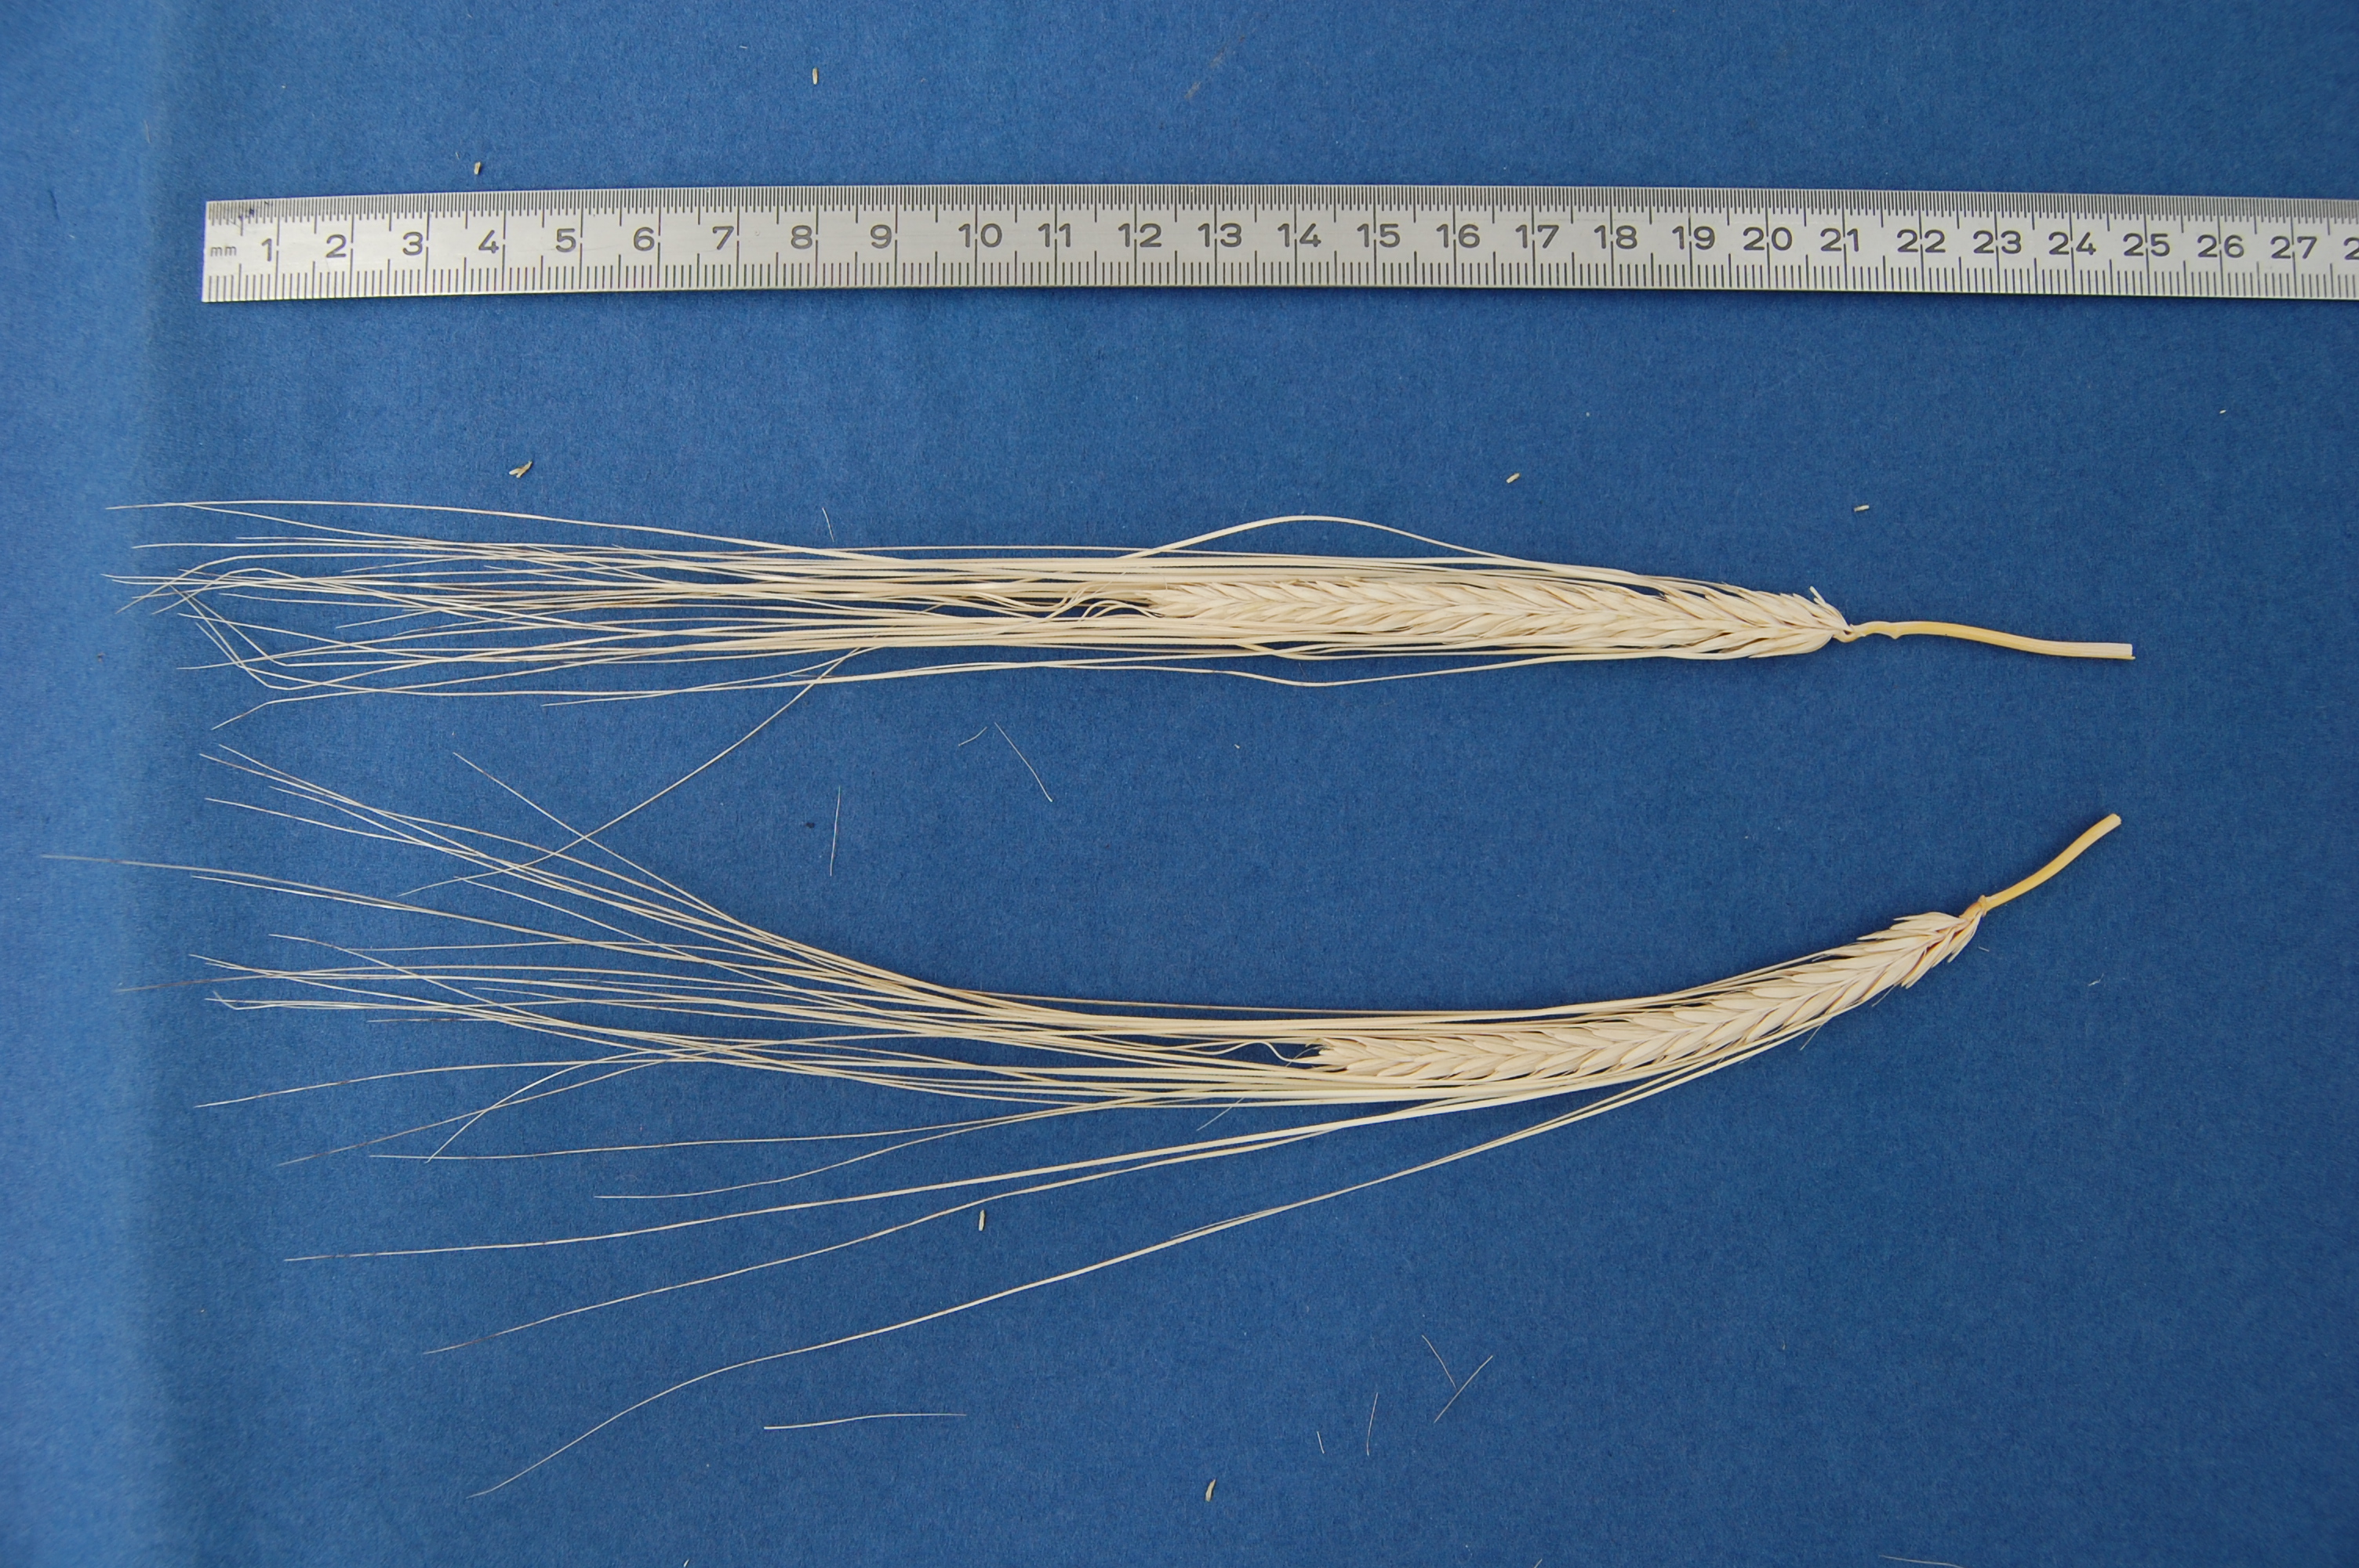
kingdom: Plantae
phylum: Tracheophyta
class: Liliopsida
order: Poales
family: Poaceae
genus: Hordeum
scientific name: Hordeum vulgare
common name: Common barley
